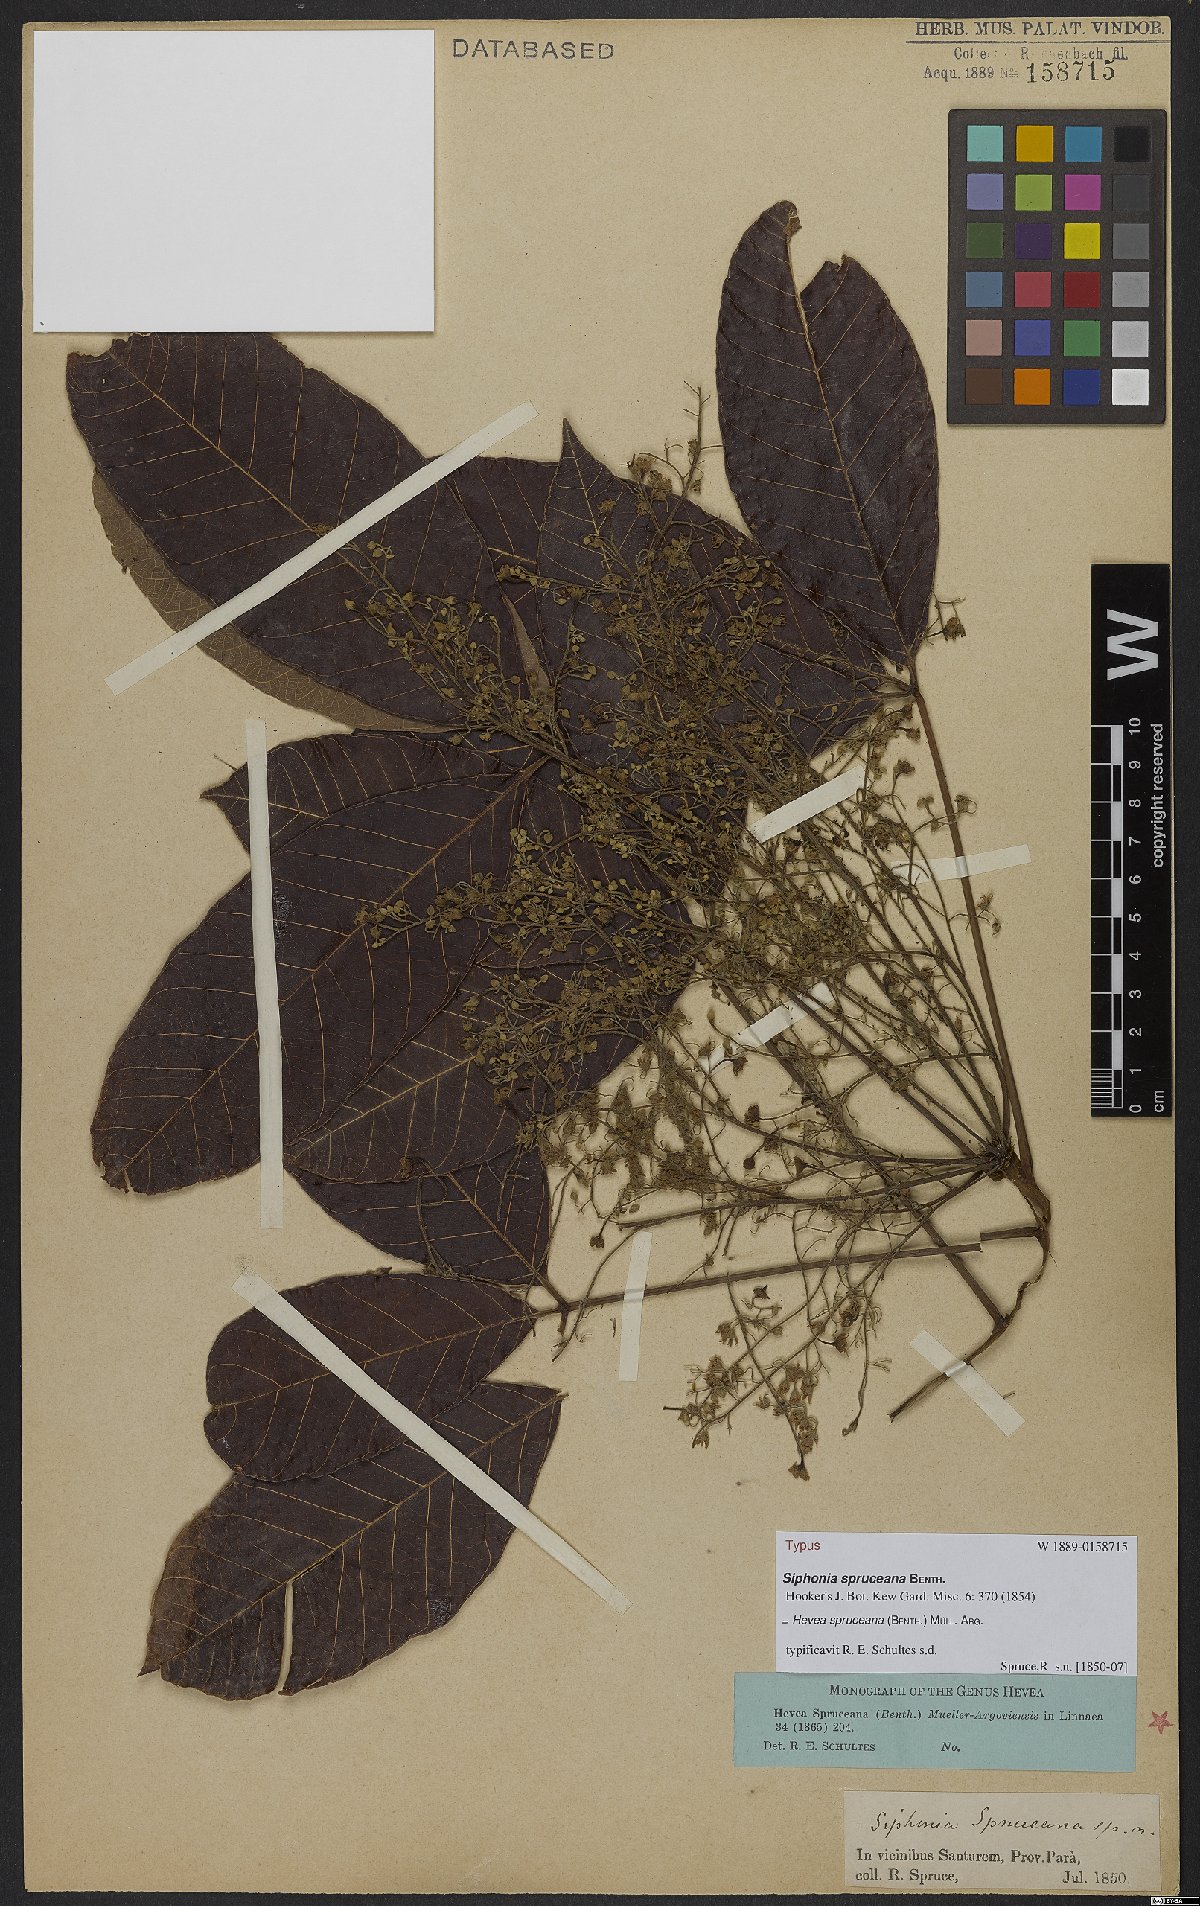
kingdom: Plantae
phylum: Tracheophyta
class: Magnoliopsida
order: Malpighiales
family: Euphorbiaceae
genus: Hevea
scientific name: Hevea spruceana
